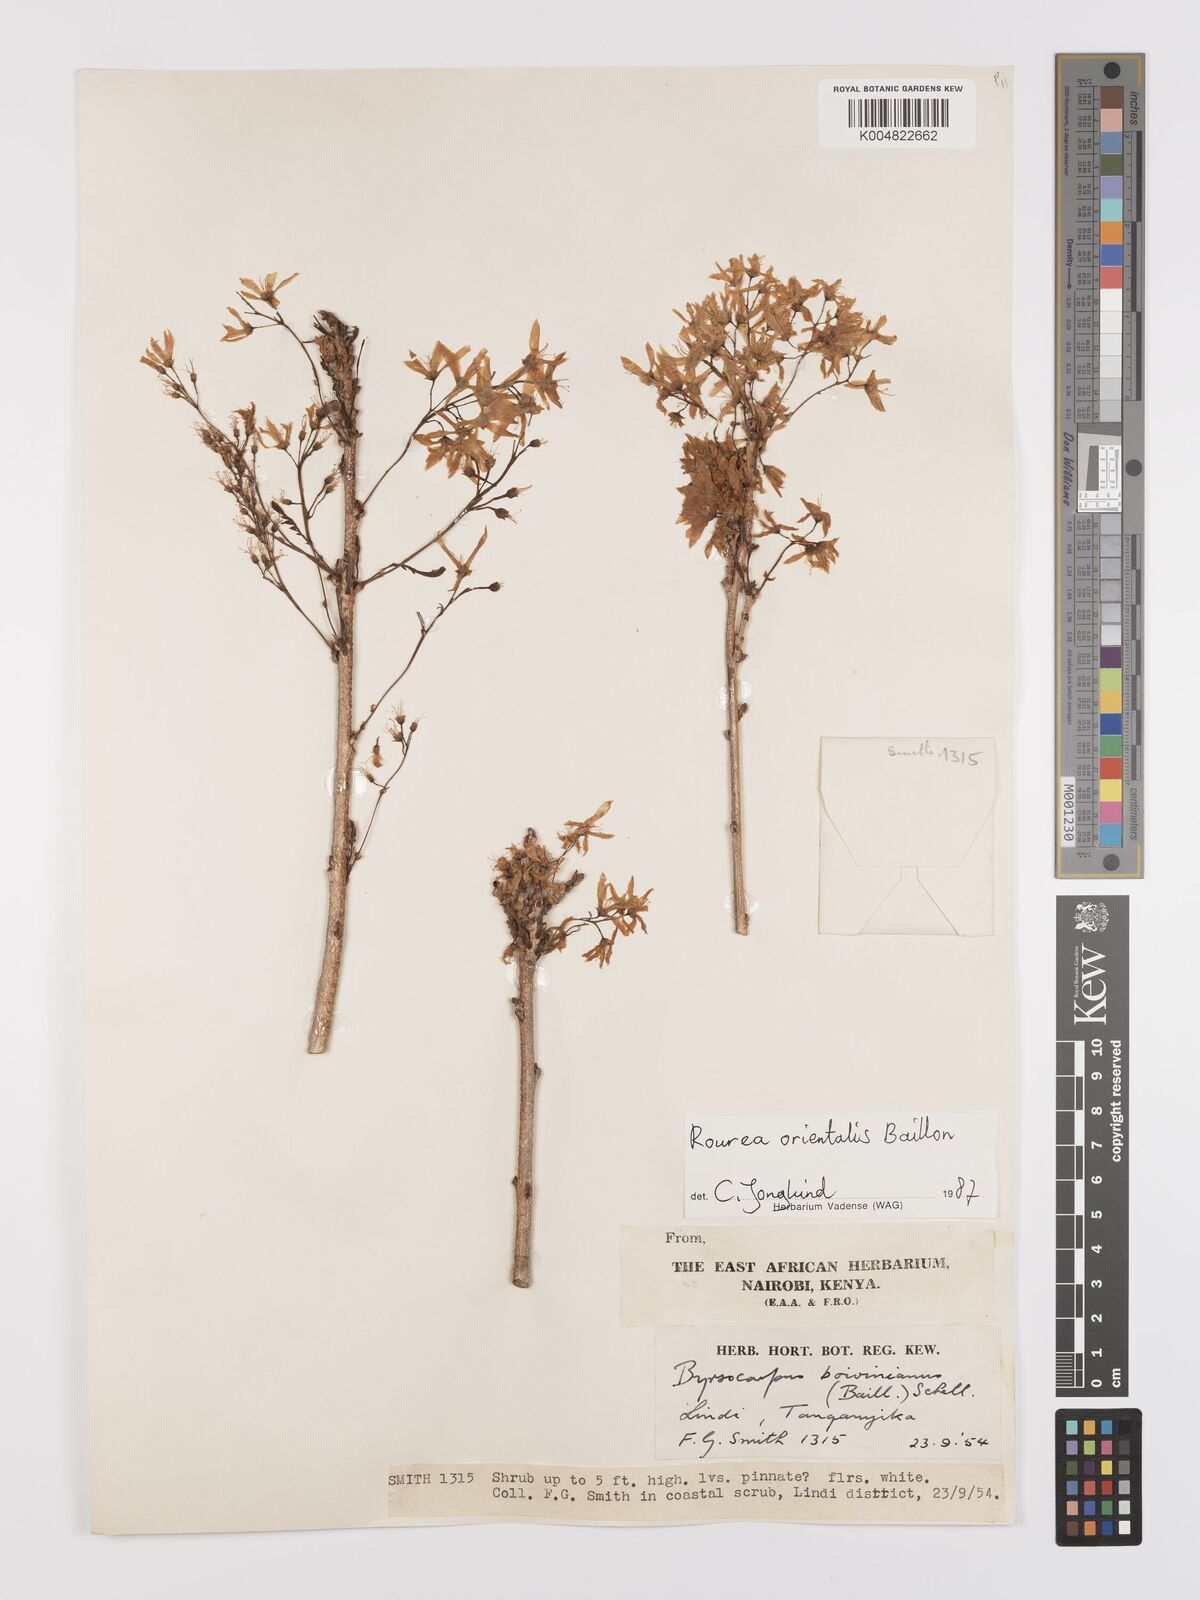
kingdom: Plantae
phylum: Tracheophyta
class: Magnoliopsida
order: Oxalidales
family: Connaraceae
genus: Rourea
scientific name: Rourea orientalis
